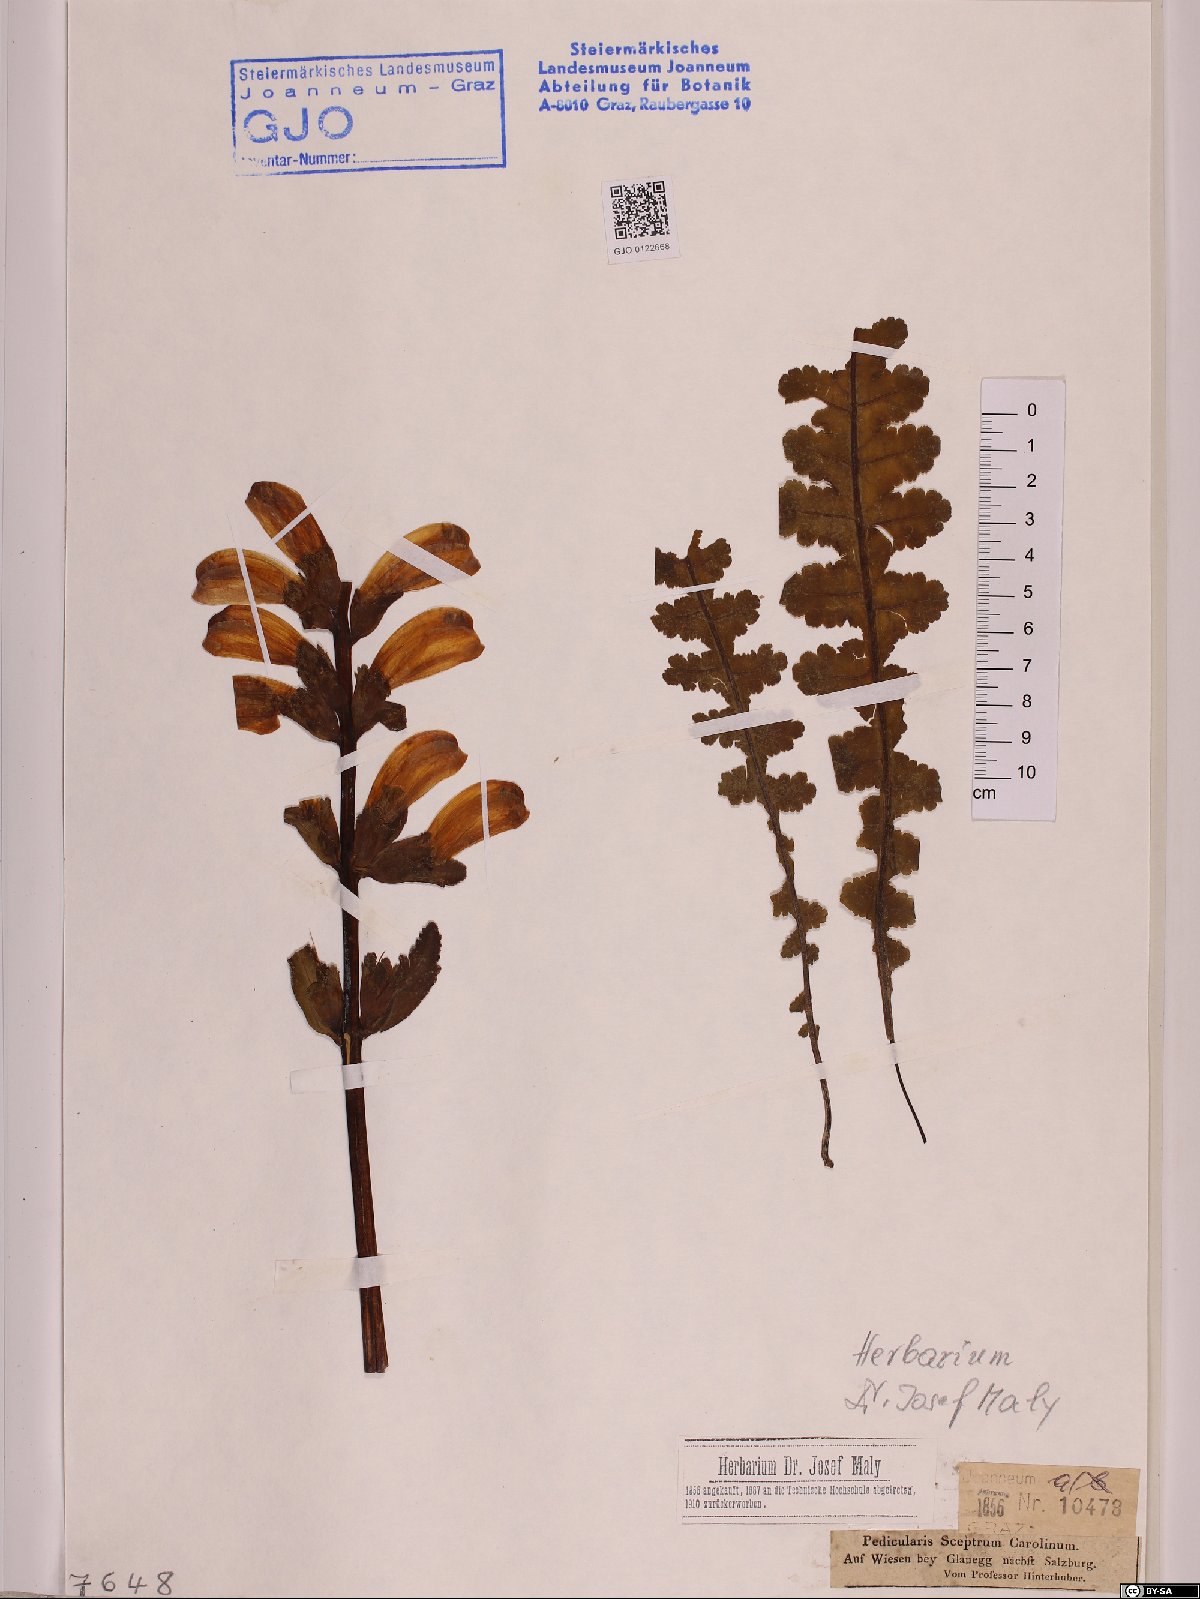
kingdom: Plantae
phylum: Tracheophyta
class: Magnoliopsida
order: Lamiales
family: Orobanchaceae
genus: Pedicularis
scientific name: Pedicularis sceptrum-carolinum
